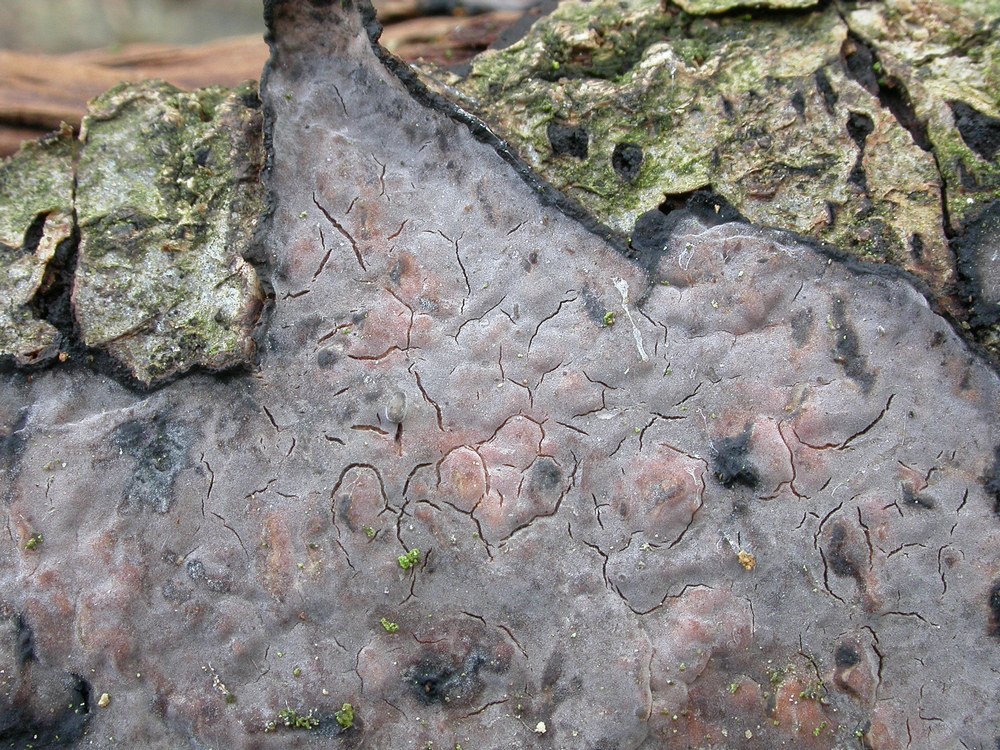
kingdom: Fungi
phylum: Basidiomycota
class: Agaricomycetes
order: Russulales
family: Peniophoraceae
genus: Peniophora
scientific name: Peniophora quercina
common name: ege-voksskind
